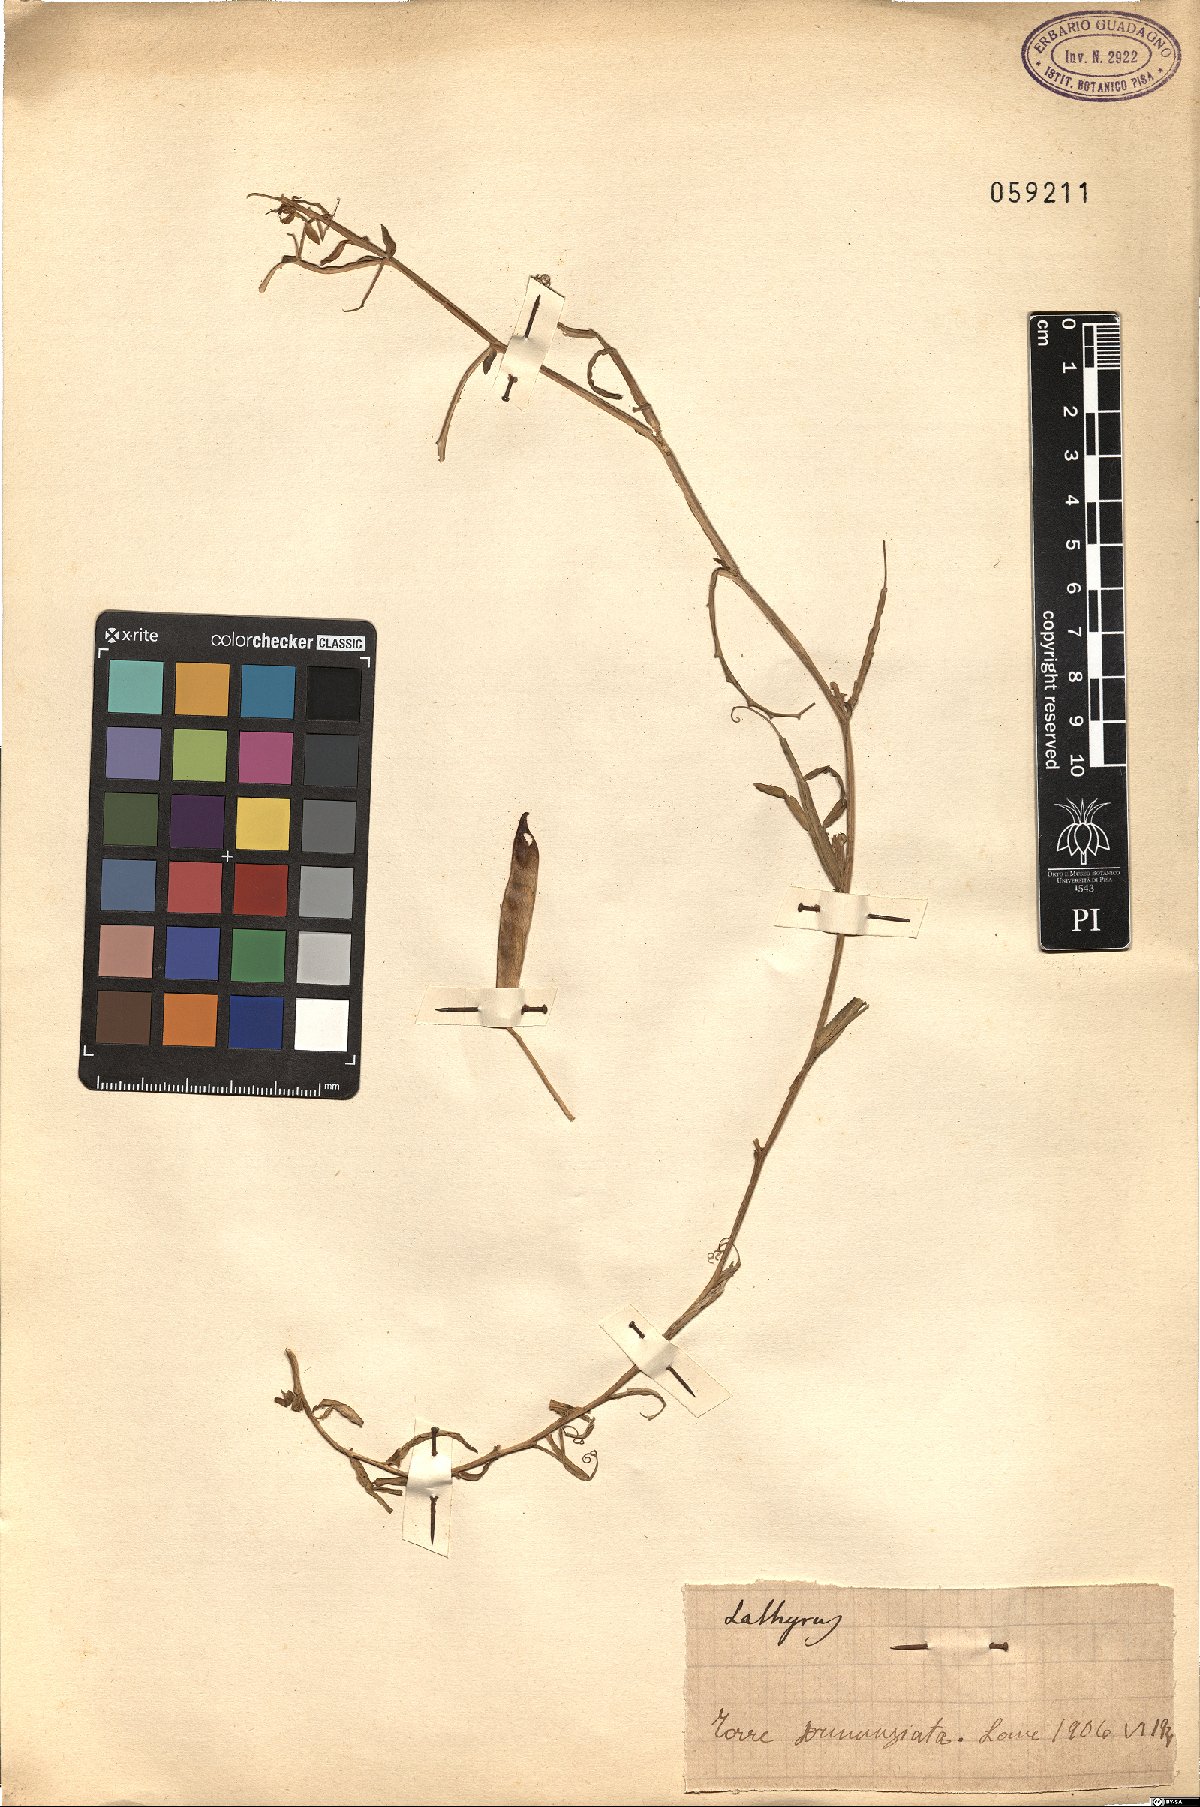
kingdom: Plantae
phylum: Tracheophyta
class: Magnoliopsida
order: Fabales
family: Fabaceae
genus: Lathyrus
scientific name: Lathyrus
